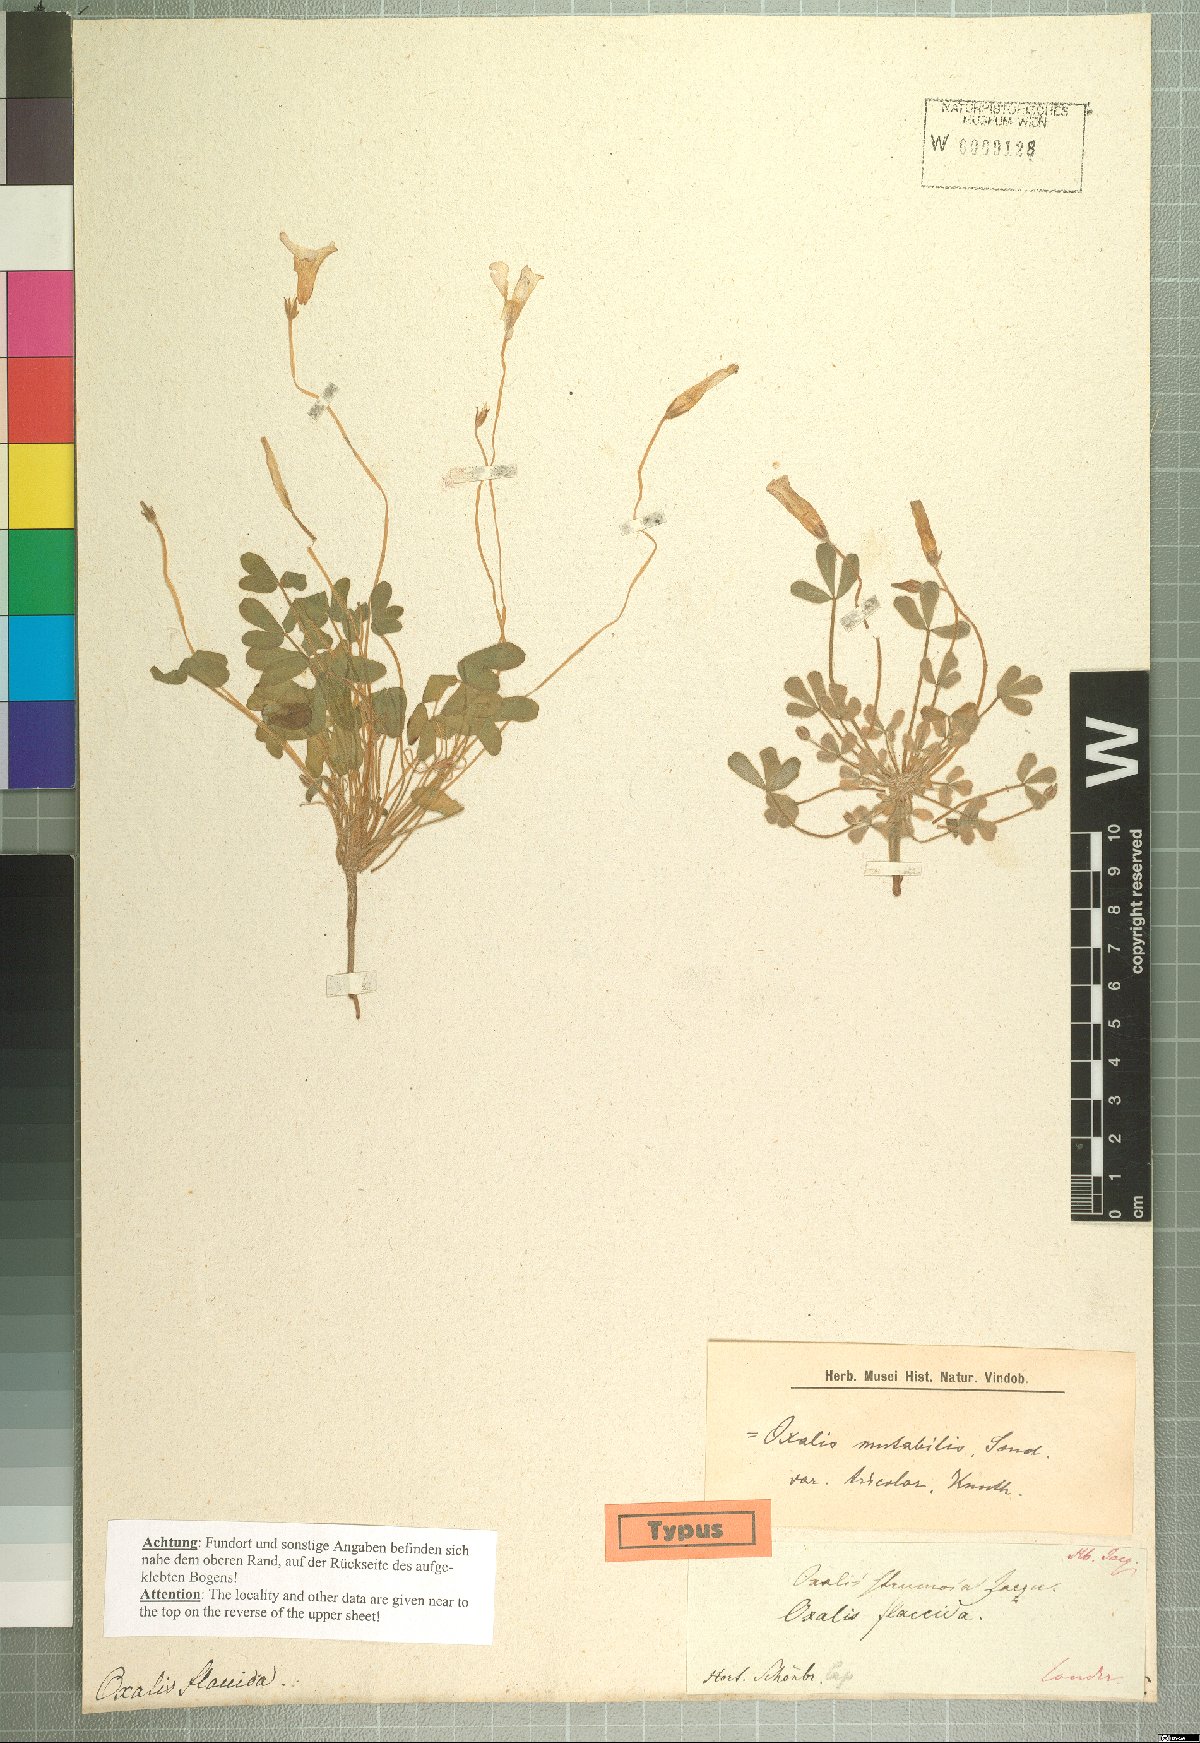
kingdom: Plantae
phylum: Tracheophyta
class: Magnoliopsida
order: Oxalidales
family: Oxalidaceae
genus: Oxalis
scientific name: Oxalis ambigua
